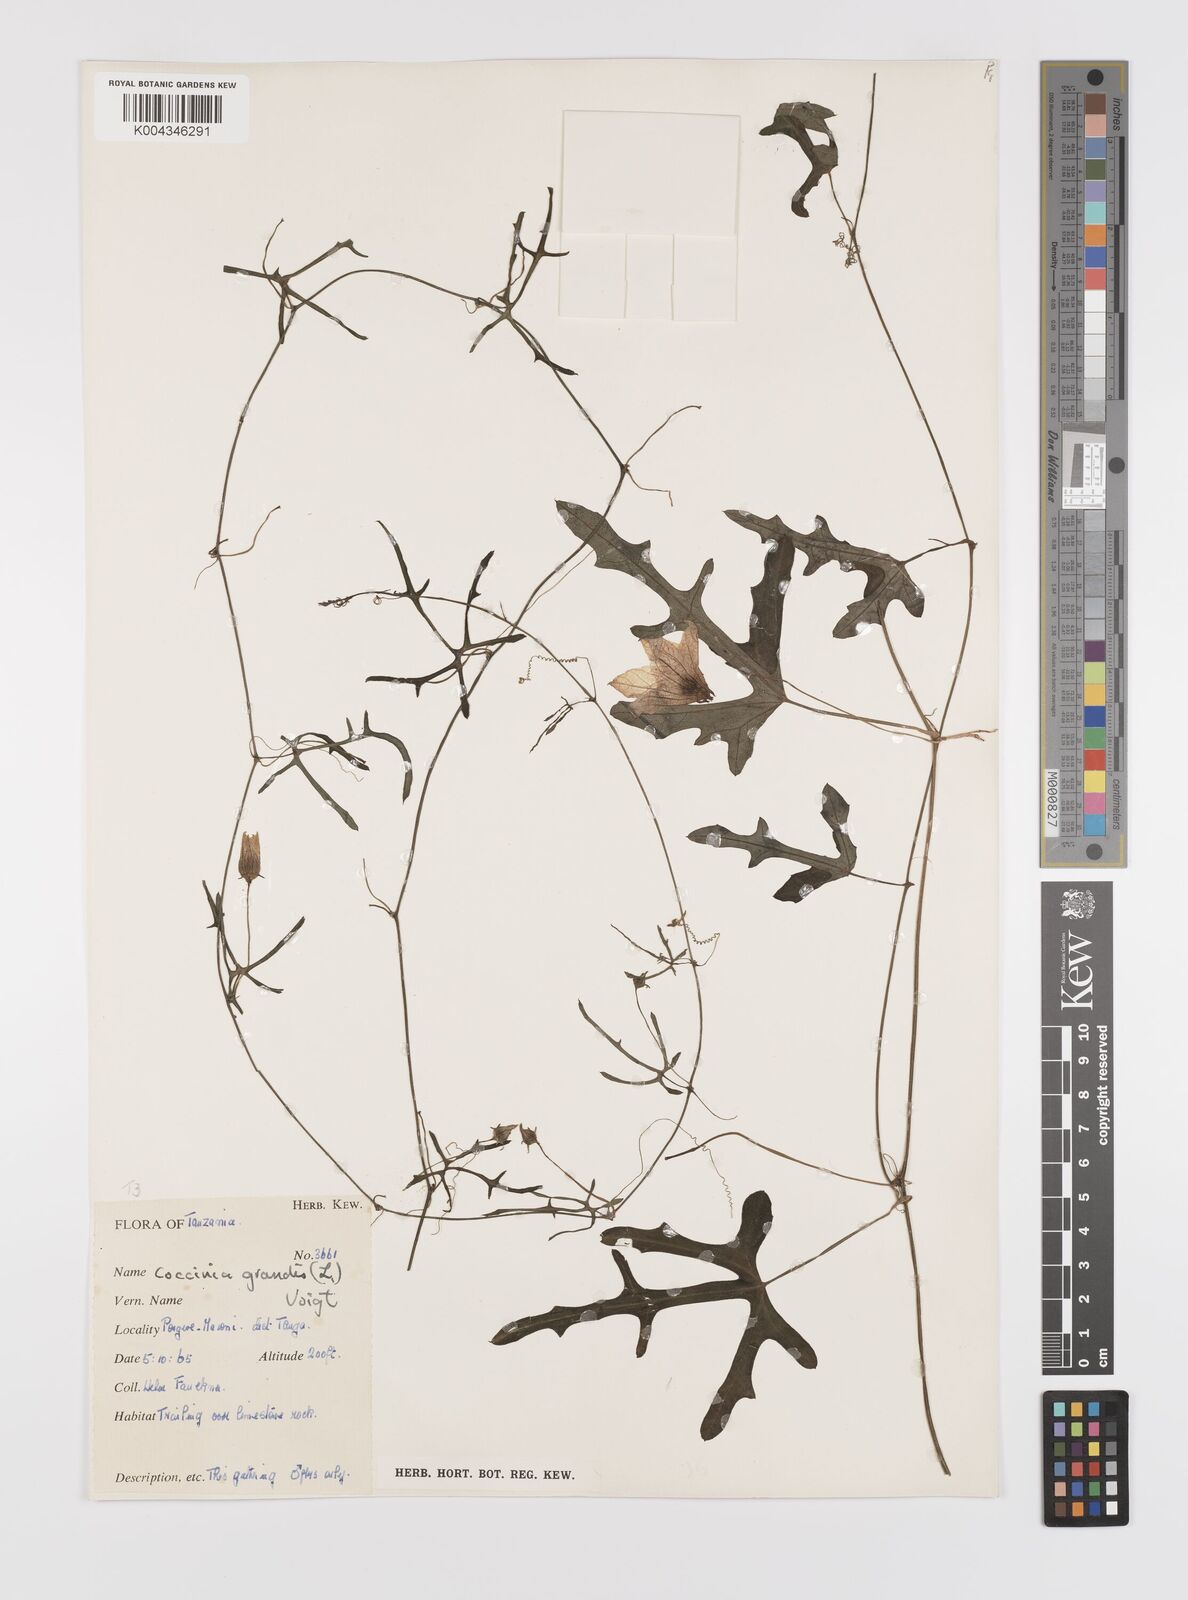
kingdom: Plantae
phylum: Tracheophyta
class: Magnoliopsida
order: Cucurbitales
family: Cucurbitaceae
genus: Coccinia
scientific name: Coccinia grandis
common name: Ivy gourd
